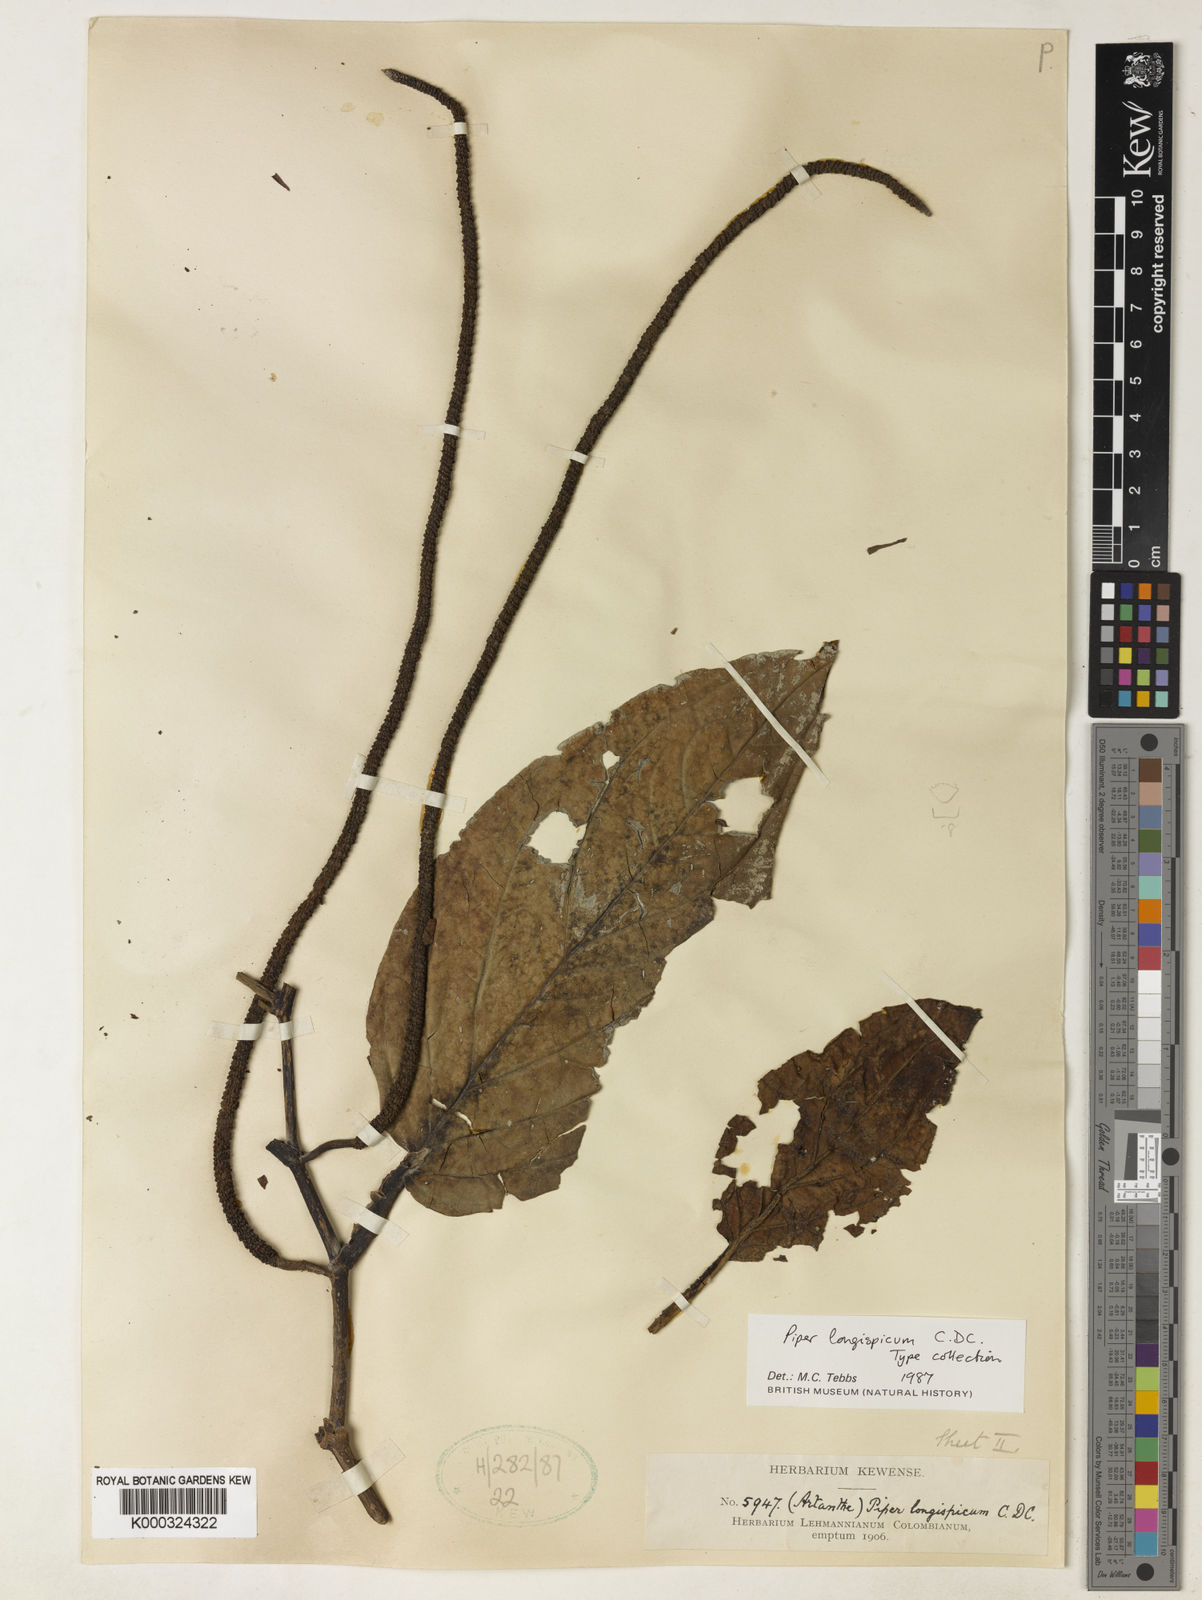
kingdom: Plantae
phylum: Tracheophyta
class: Magnoliopsida
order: Piperales
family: Piperaceae
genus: Piper
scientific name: Piper longispicum
